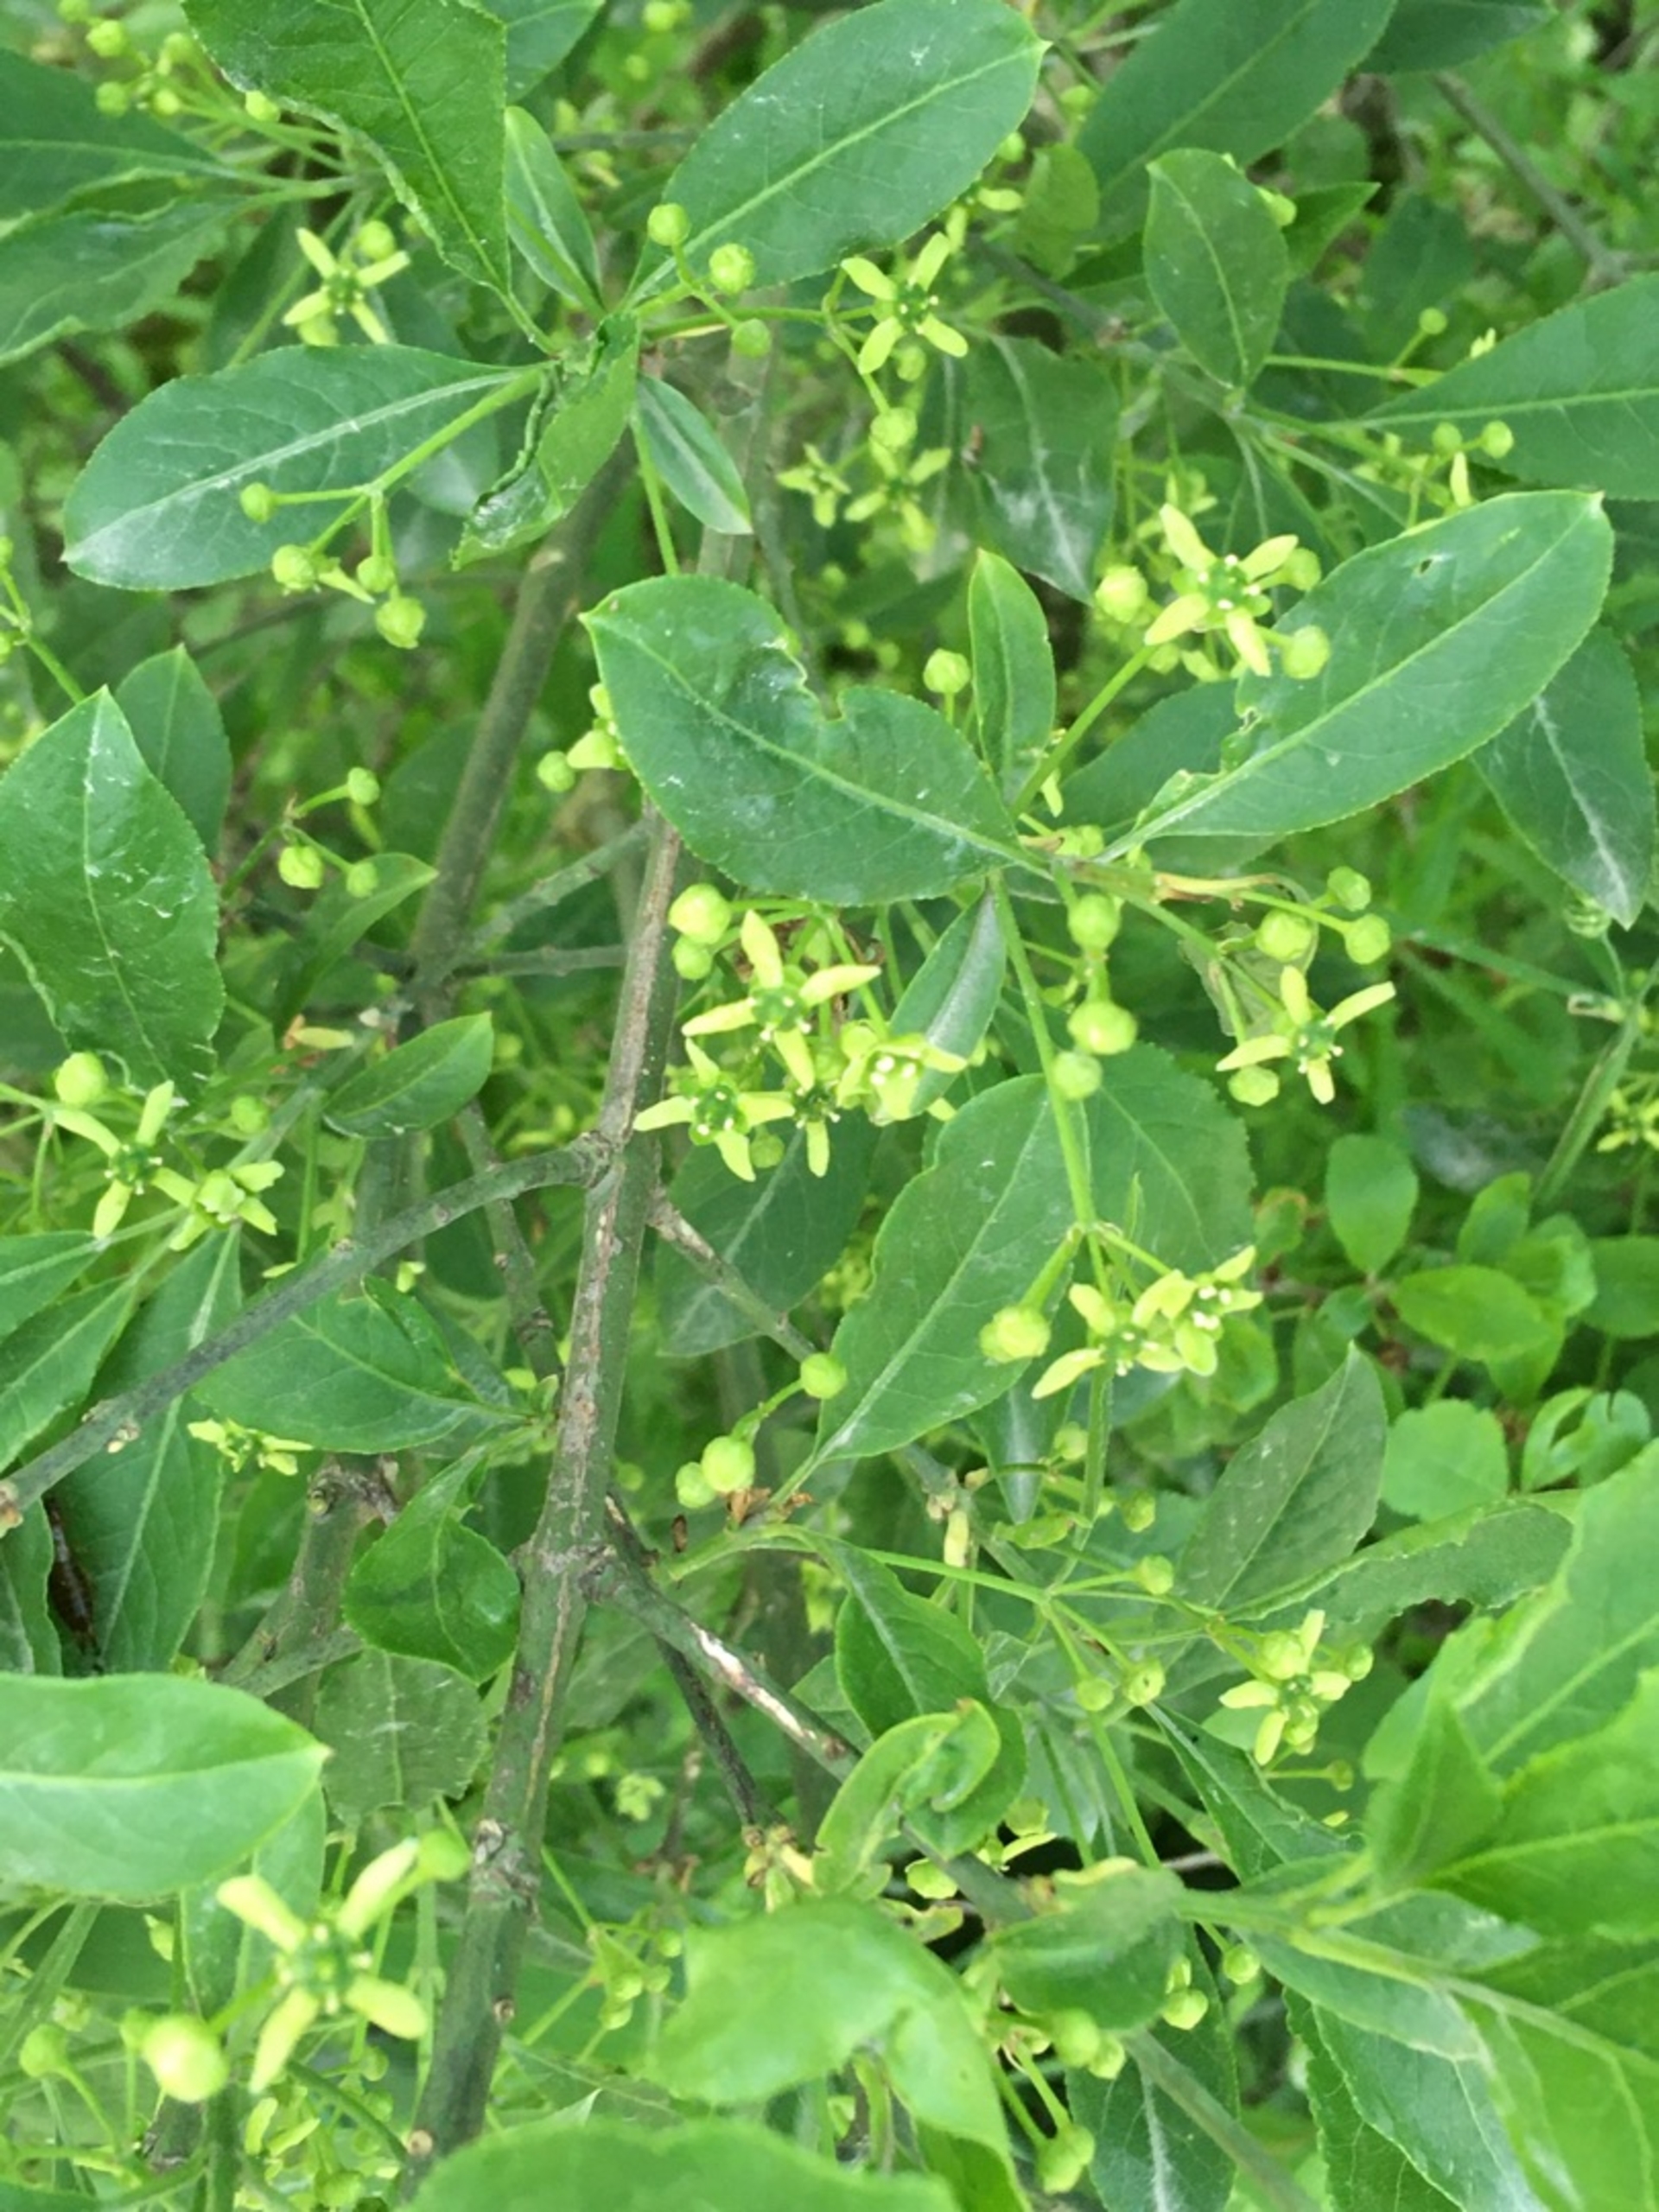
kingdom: Plantae
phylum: Tracheophyta
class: Magnoliopsida
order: Celastrales
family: Celastraceae
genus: Euonymus
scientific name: Euonymus europaeus
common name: Benved
